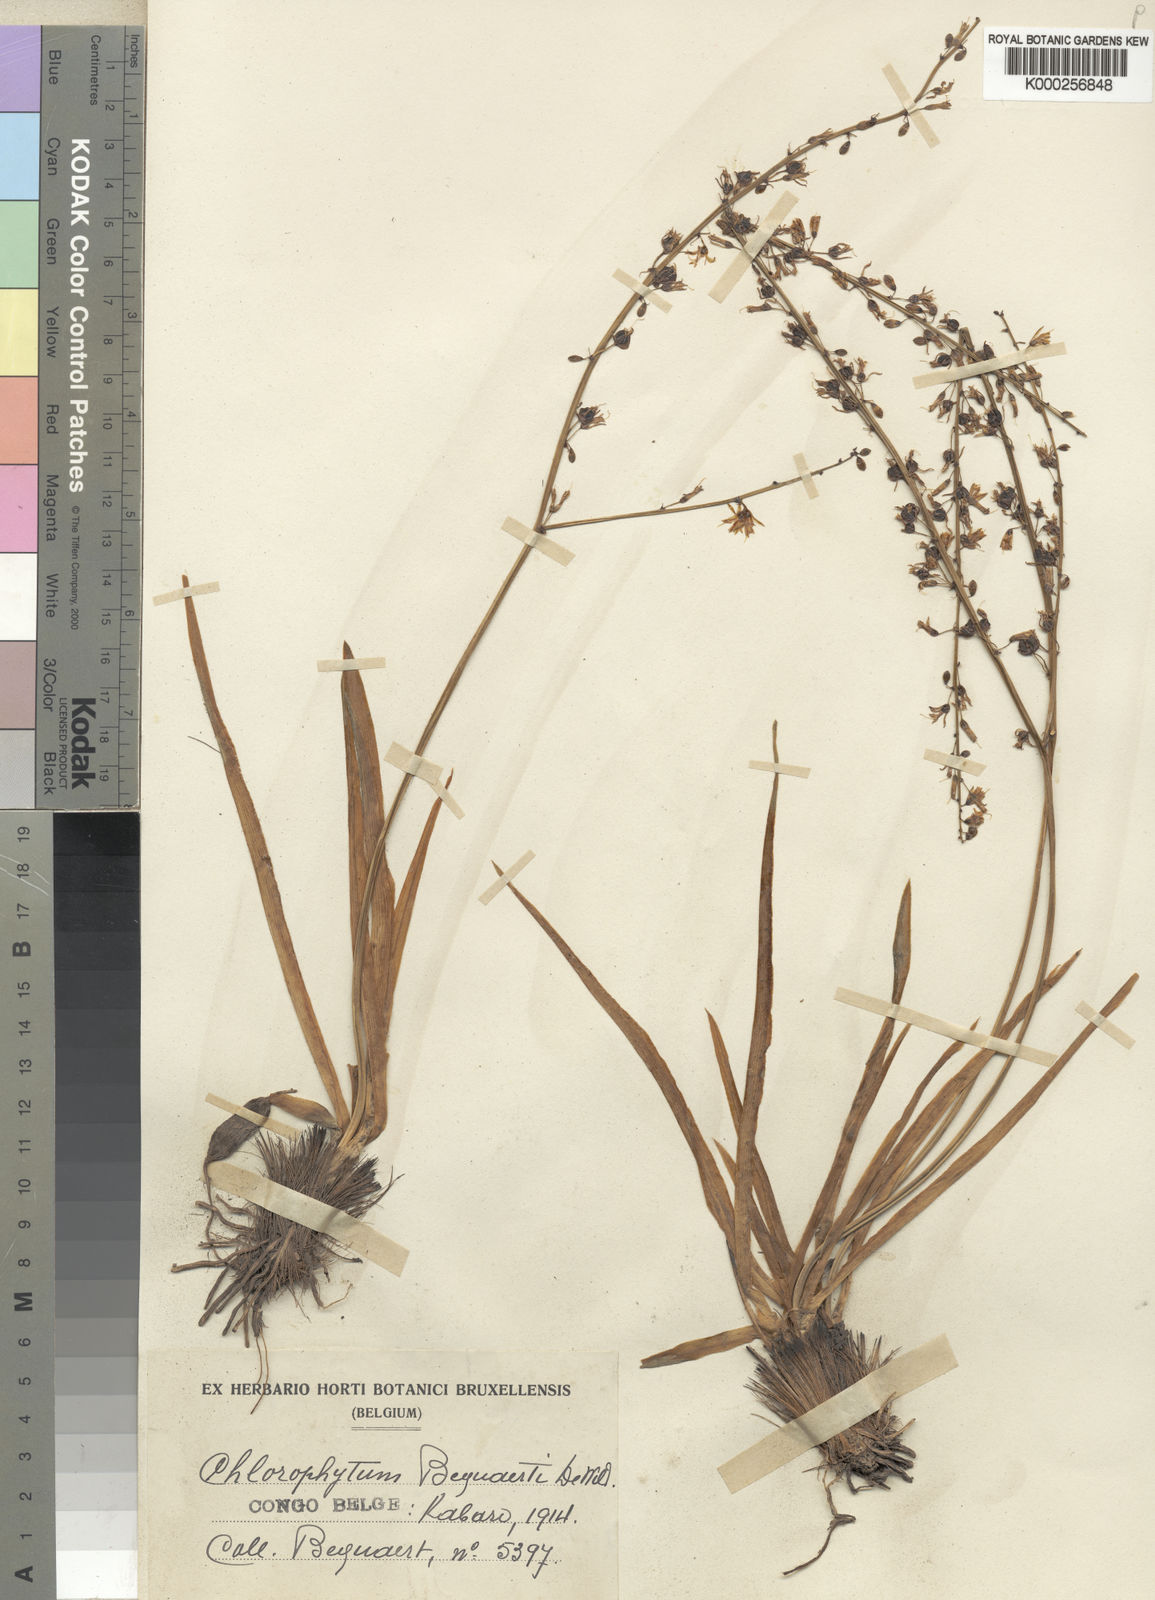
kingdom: Plantae
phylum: Tracheophyta
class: Liliopsida
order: Asparagales
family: Asparagaceae
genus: Chlorophytum
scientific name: Chlorophytum gallabatense
